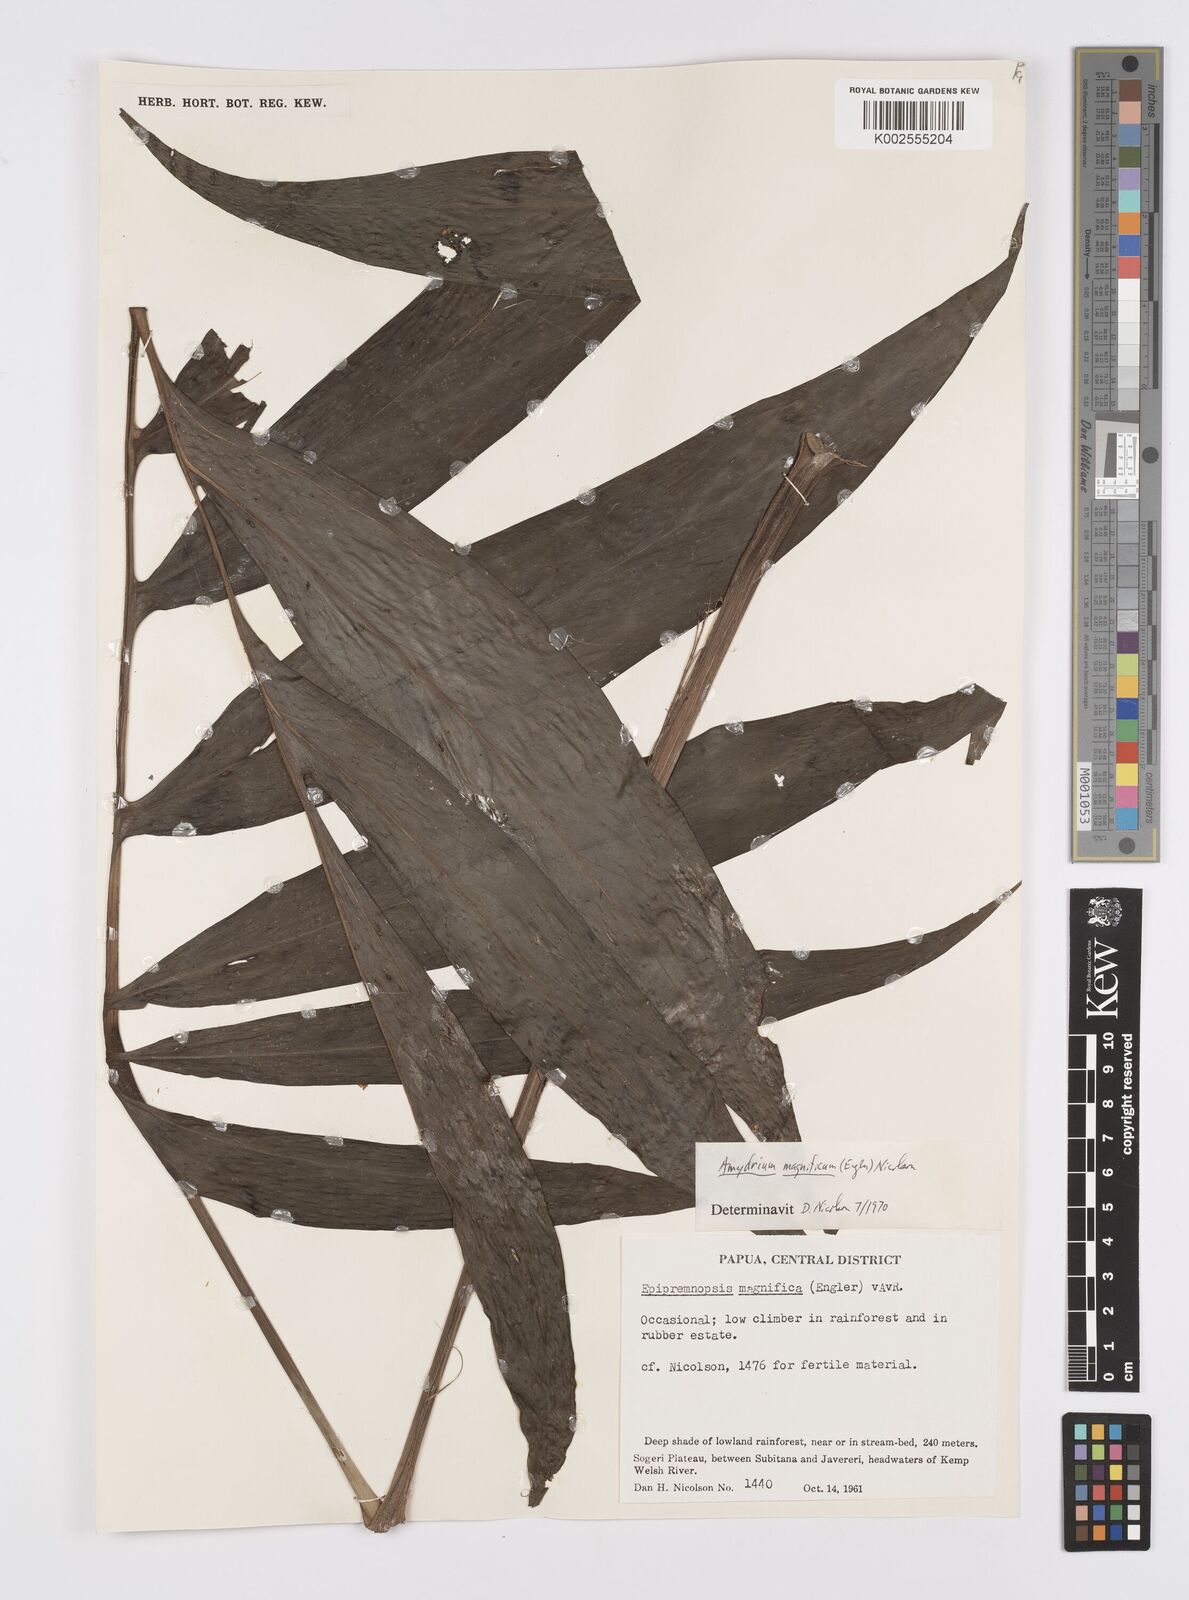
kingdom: Plantae
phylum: Tracheophyta
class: Liliopsida
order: Alismatales
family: Araceae
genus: Amydrium
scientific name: Amydrium zippelianum
